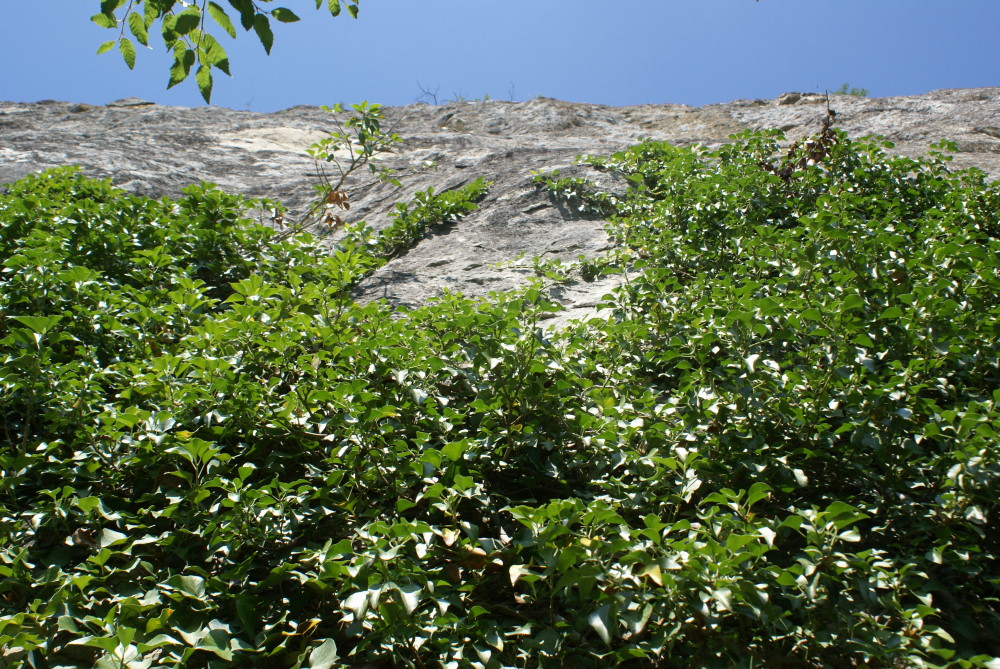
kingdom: Plantae
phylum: Tracheophyta
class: Magnoliopsida
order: Apiales
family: Araliaceae
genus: Hedera
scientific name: Hedera helix
